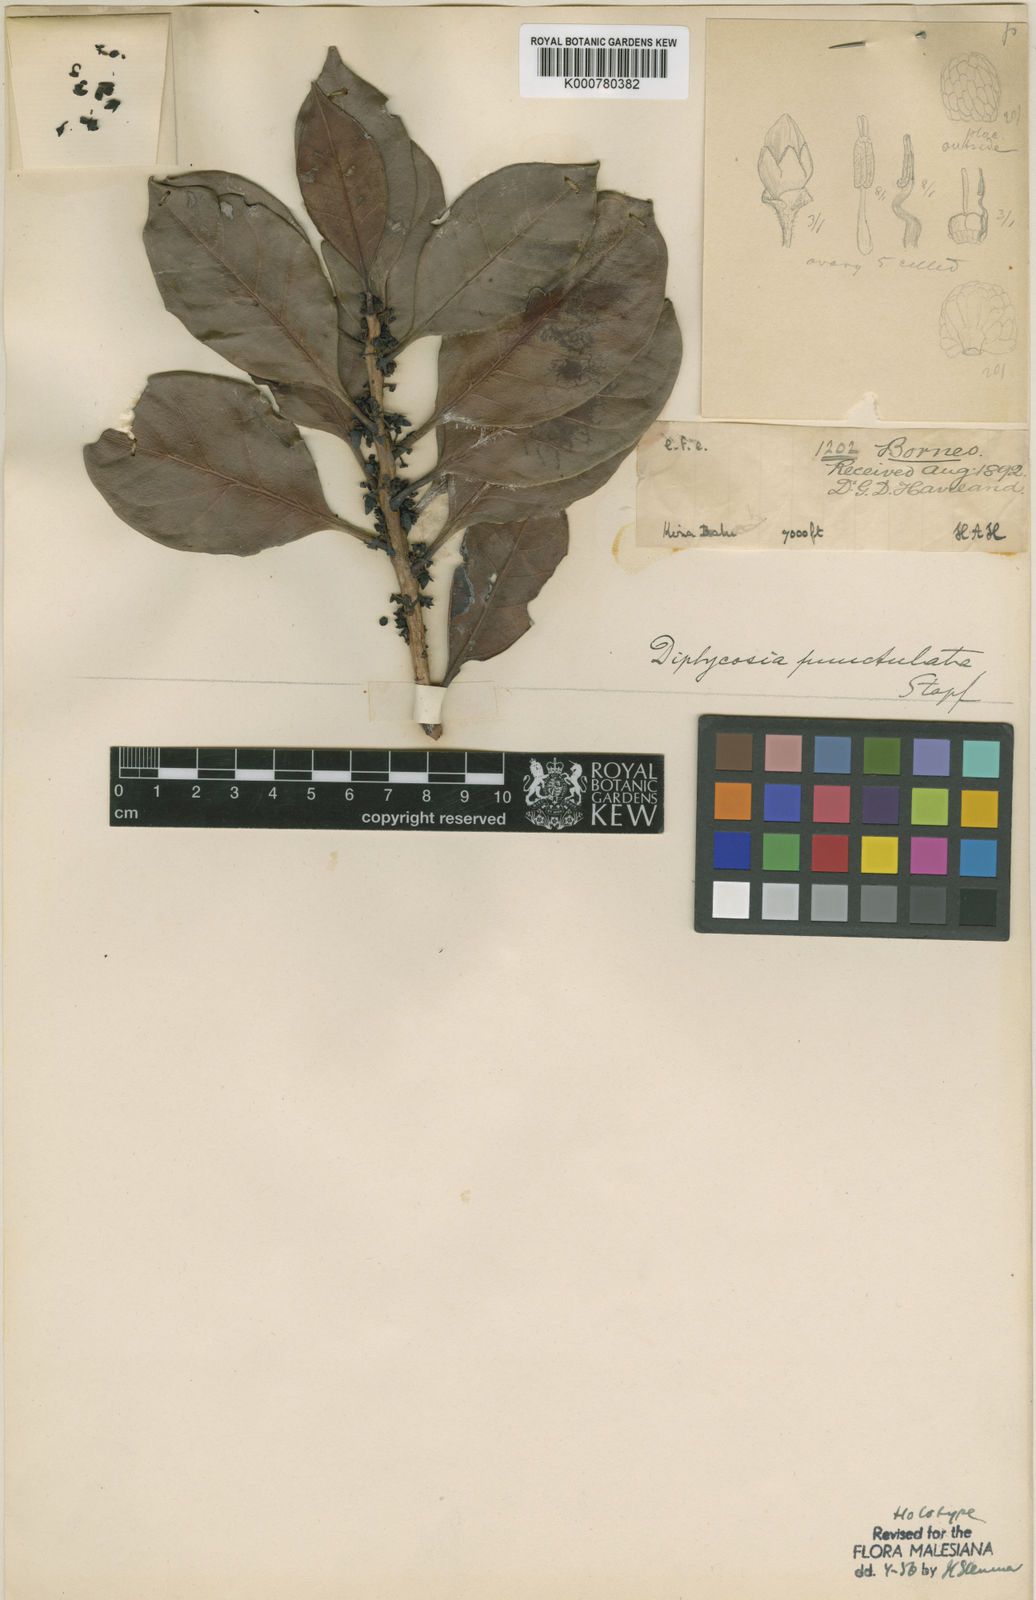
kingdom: Plantae
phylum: Tracheophyta
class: Magnoliopsida
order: Ericales
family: Ericaceae
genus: Gaultheria
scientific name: Gaultheria punctulata
